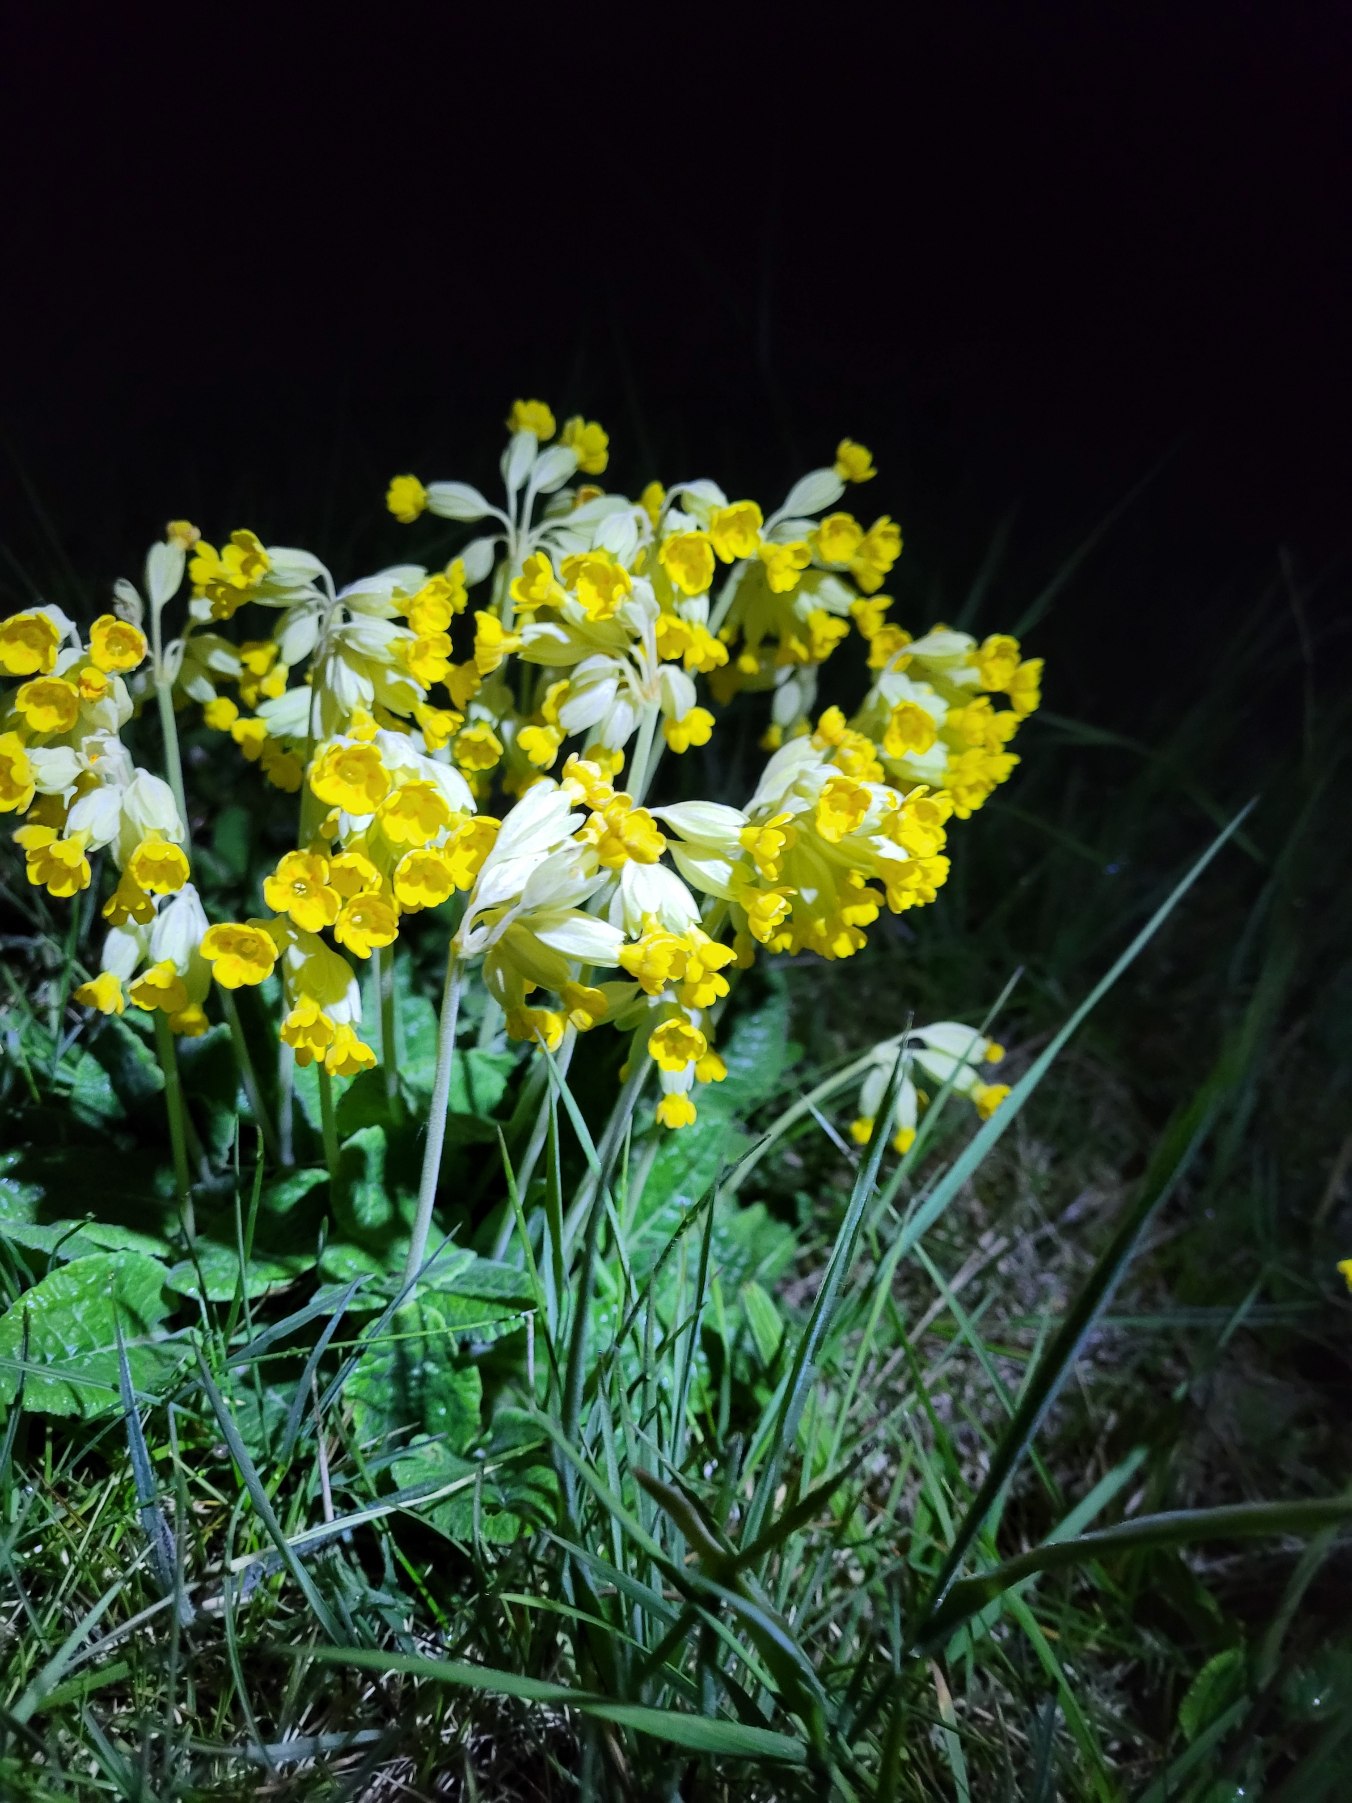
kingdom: Plantae
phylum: Tracheophyta
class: Magnoliopsida
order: Ericales
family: Primulaceae
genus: Primula
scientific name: Primula veris
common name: Hulkravet kodriver
